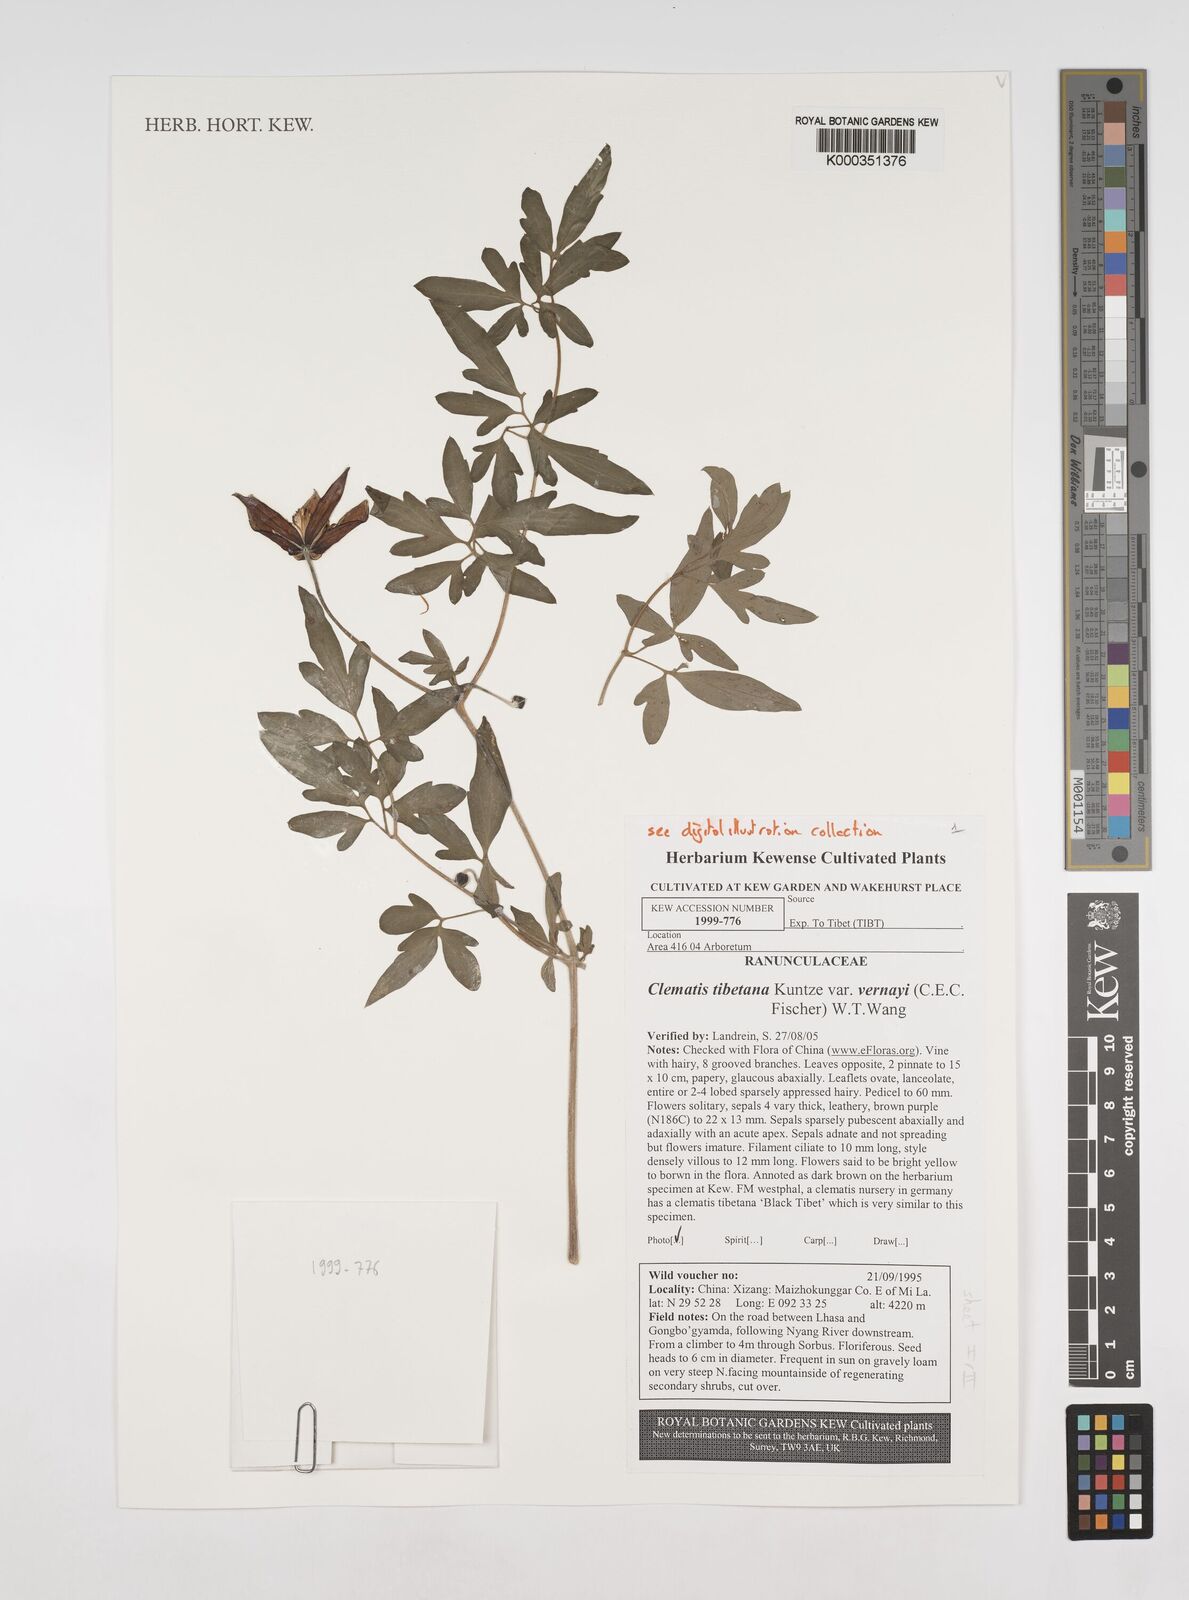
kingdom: Plantae
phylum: Tracheophyta
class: Magnoliopsida
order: Ranunculales
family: Ranunculaceae
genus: Clematis
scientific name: Clematis tibetana
